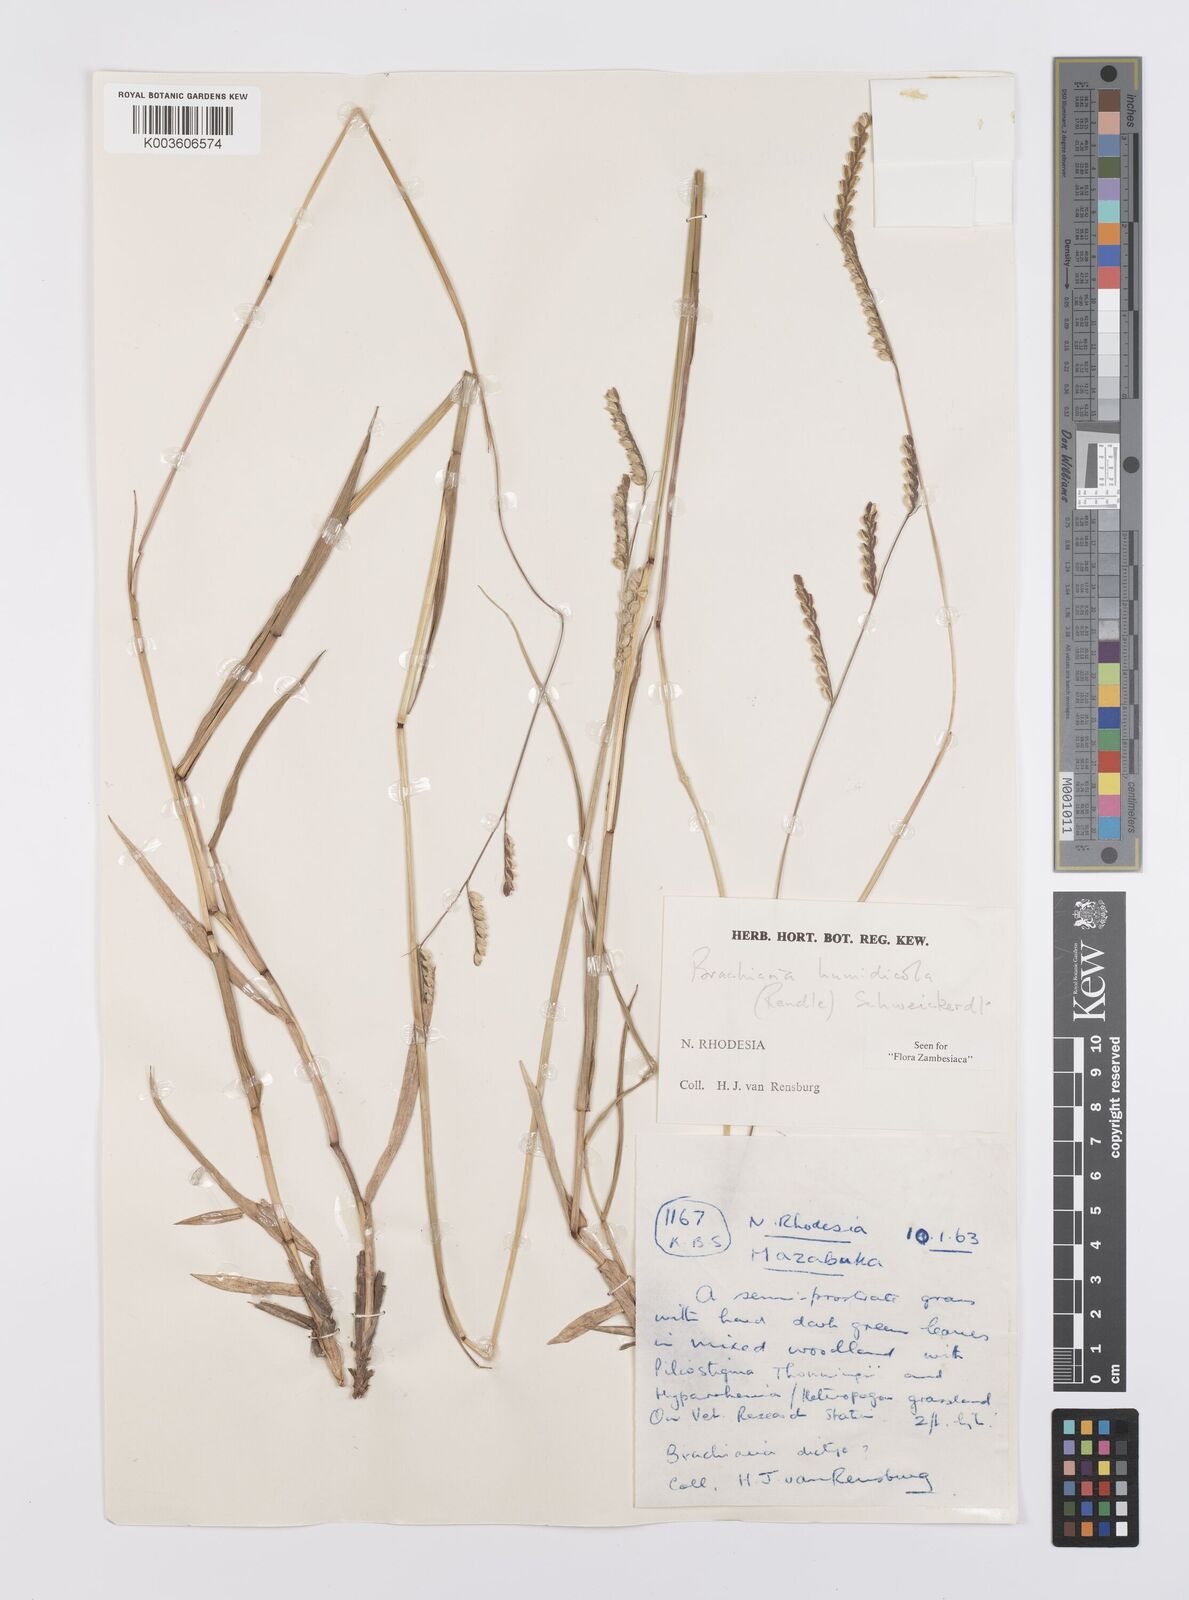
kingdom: Plantae
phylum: Tracheophyta
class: Liliopsida
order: Poales
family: Poaceae
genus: Urochloa
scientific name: Urochloa dictyoneura
